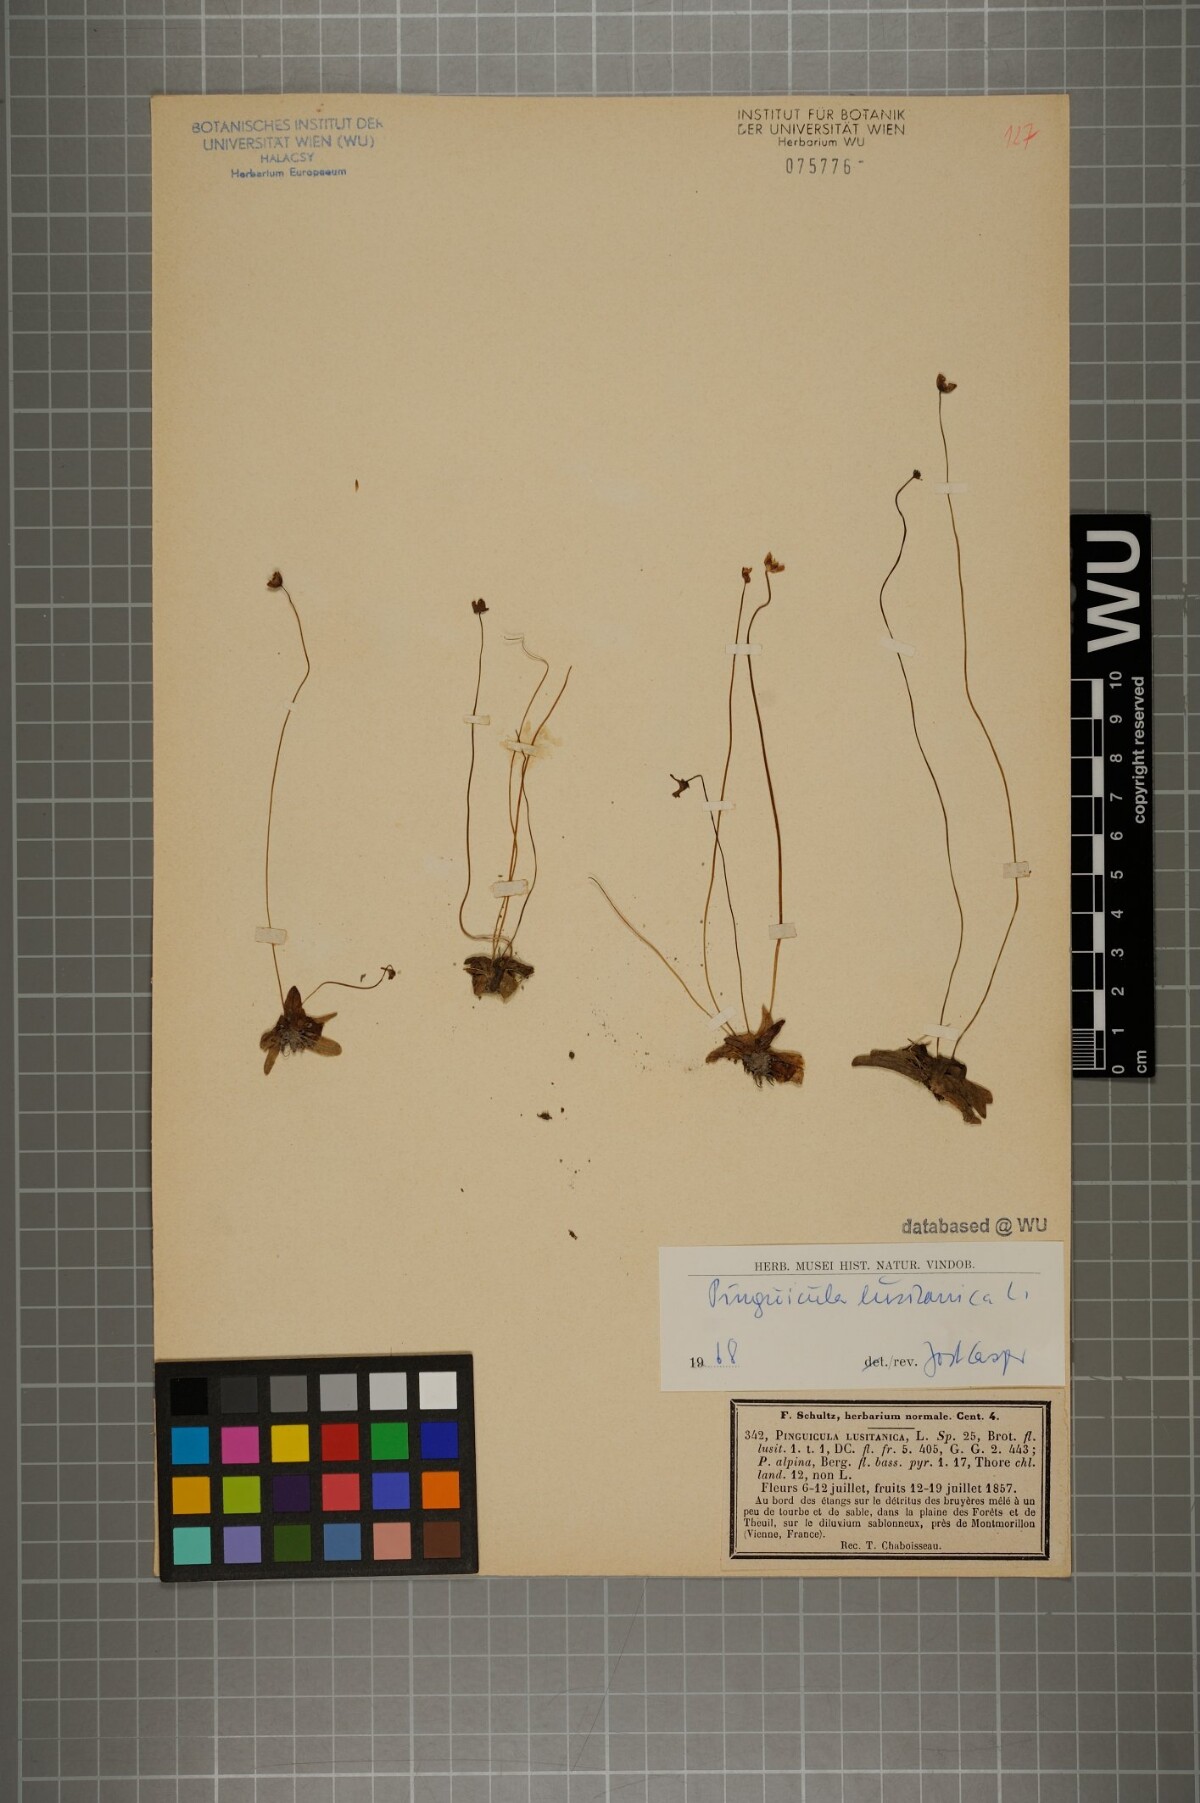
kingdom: Plantae
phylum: Tracheophyta
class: Magnoliopsida
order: Lamiales
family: Lentibulariaceae
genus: Pinguicula
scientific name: Pinguicula lusitanica
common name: Pale butterwort
